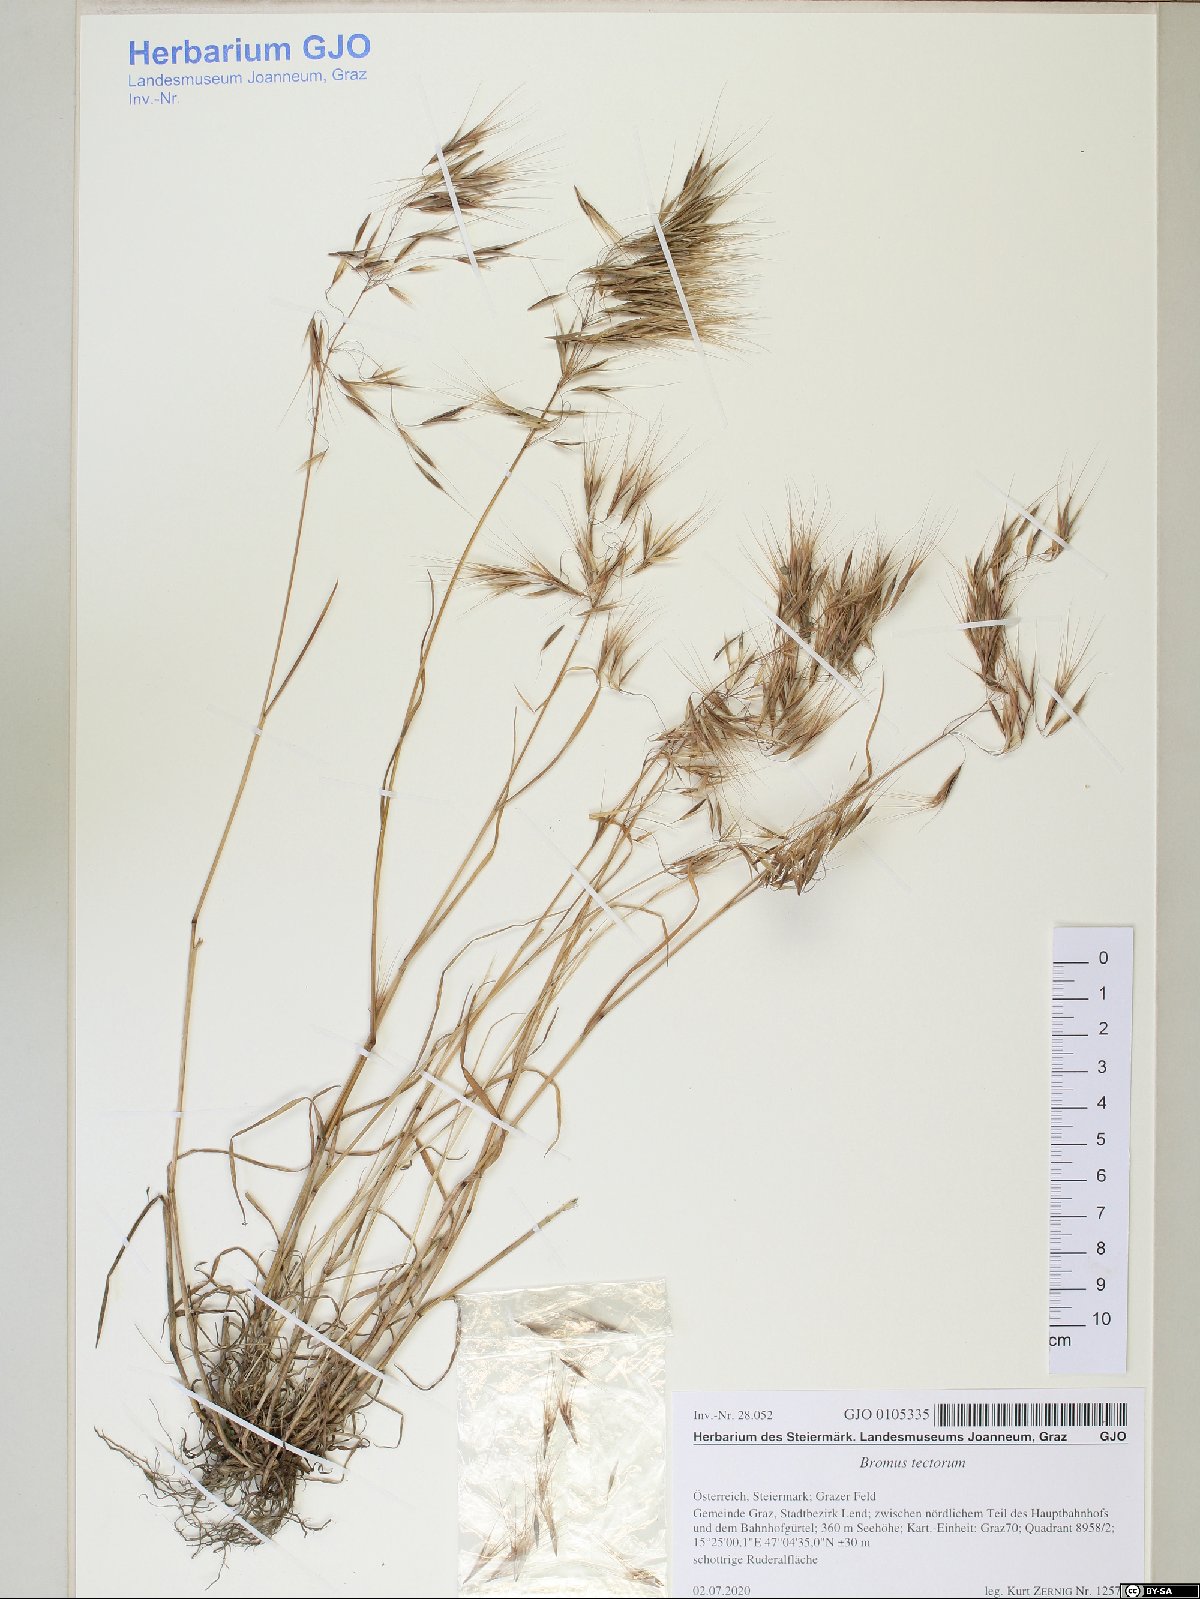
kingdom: Plantae
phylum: Tracheophyta
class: Liliopsida
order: Poales
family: Poaceae
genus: Bromus
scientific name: Bromus tectorum
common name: Cheatgrass
